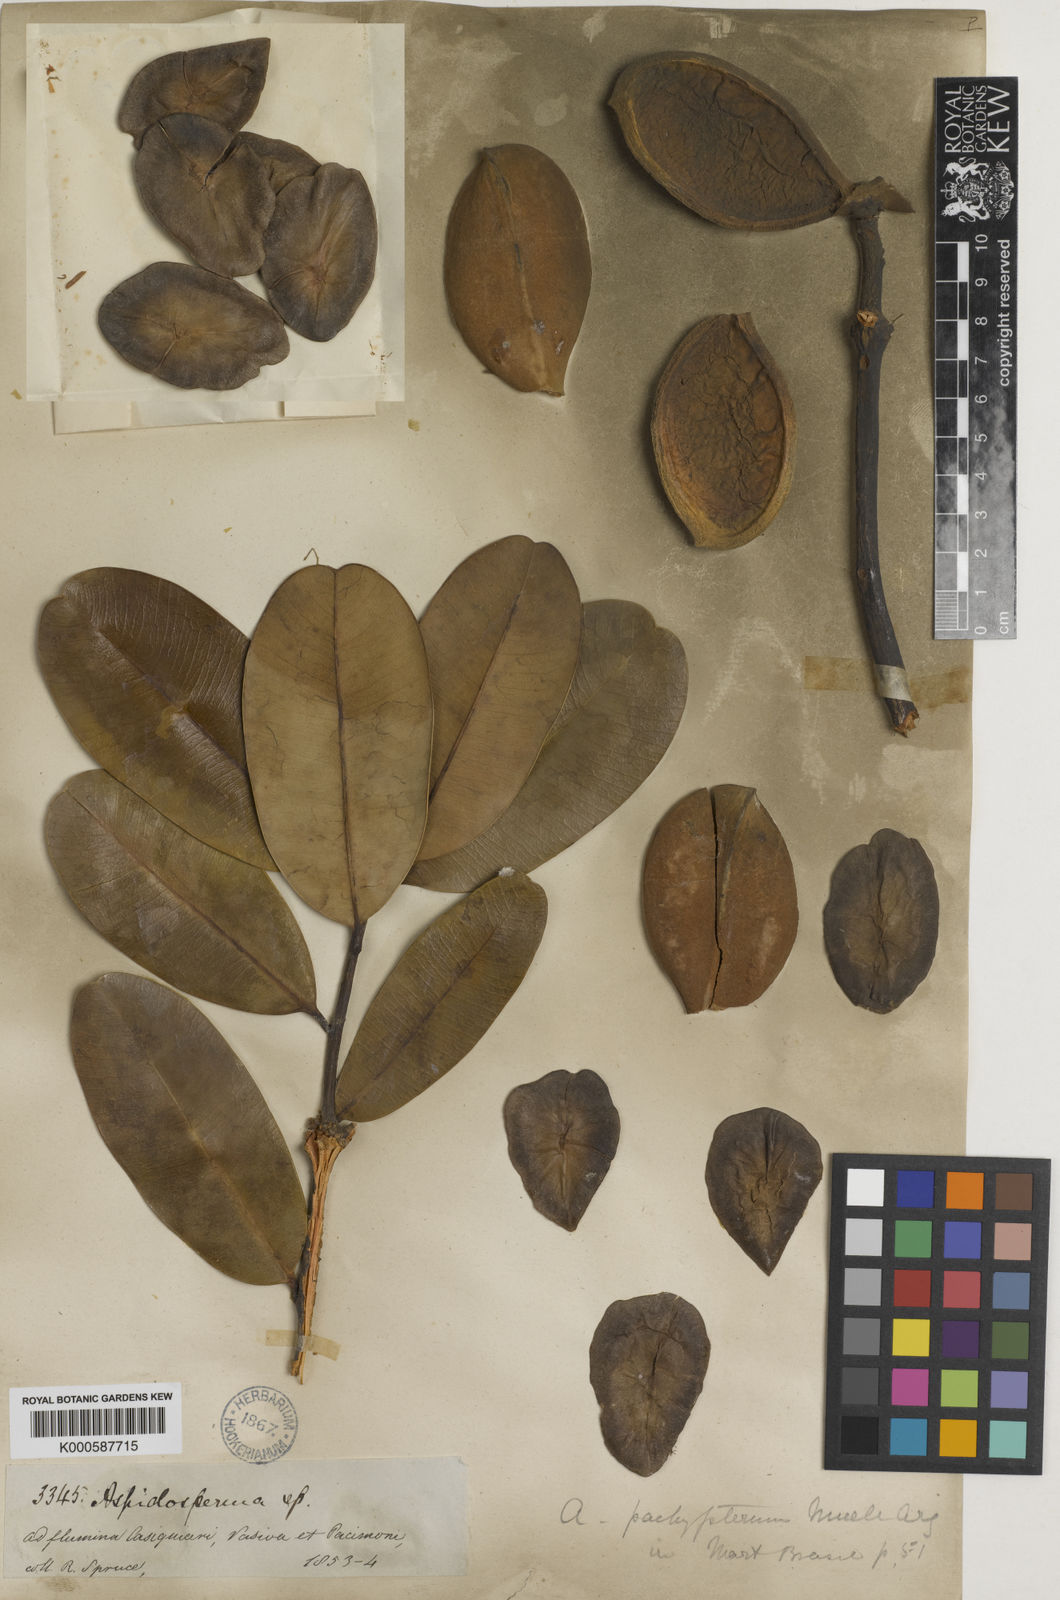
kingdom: Plantae
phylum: Tracheophyta
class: Magnoliopsida
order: Gentianales
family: Apocynaceae
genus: Aspidosperma
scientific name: Aspidosperma album
